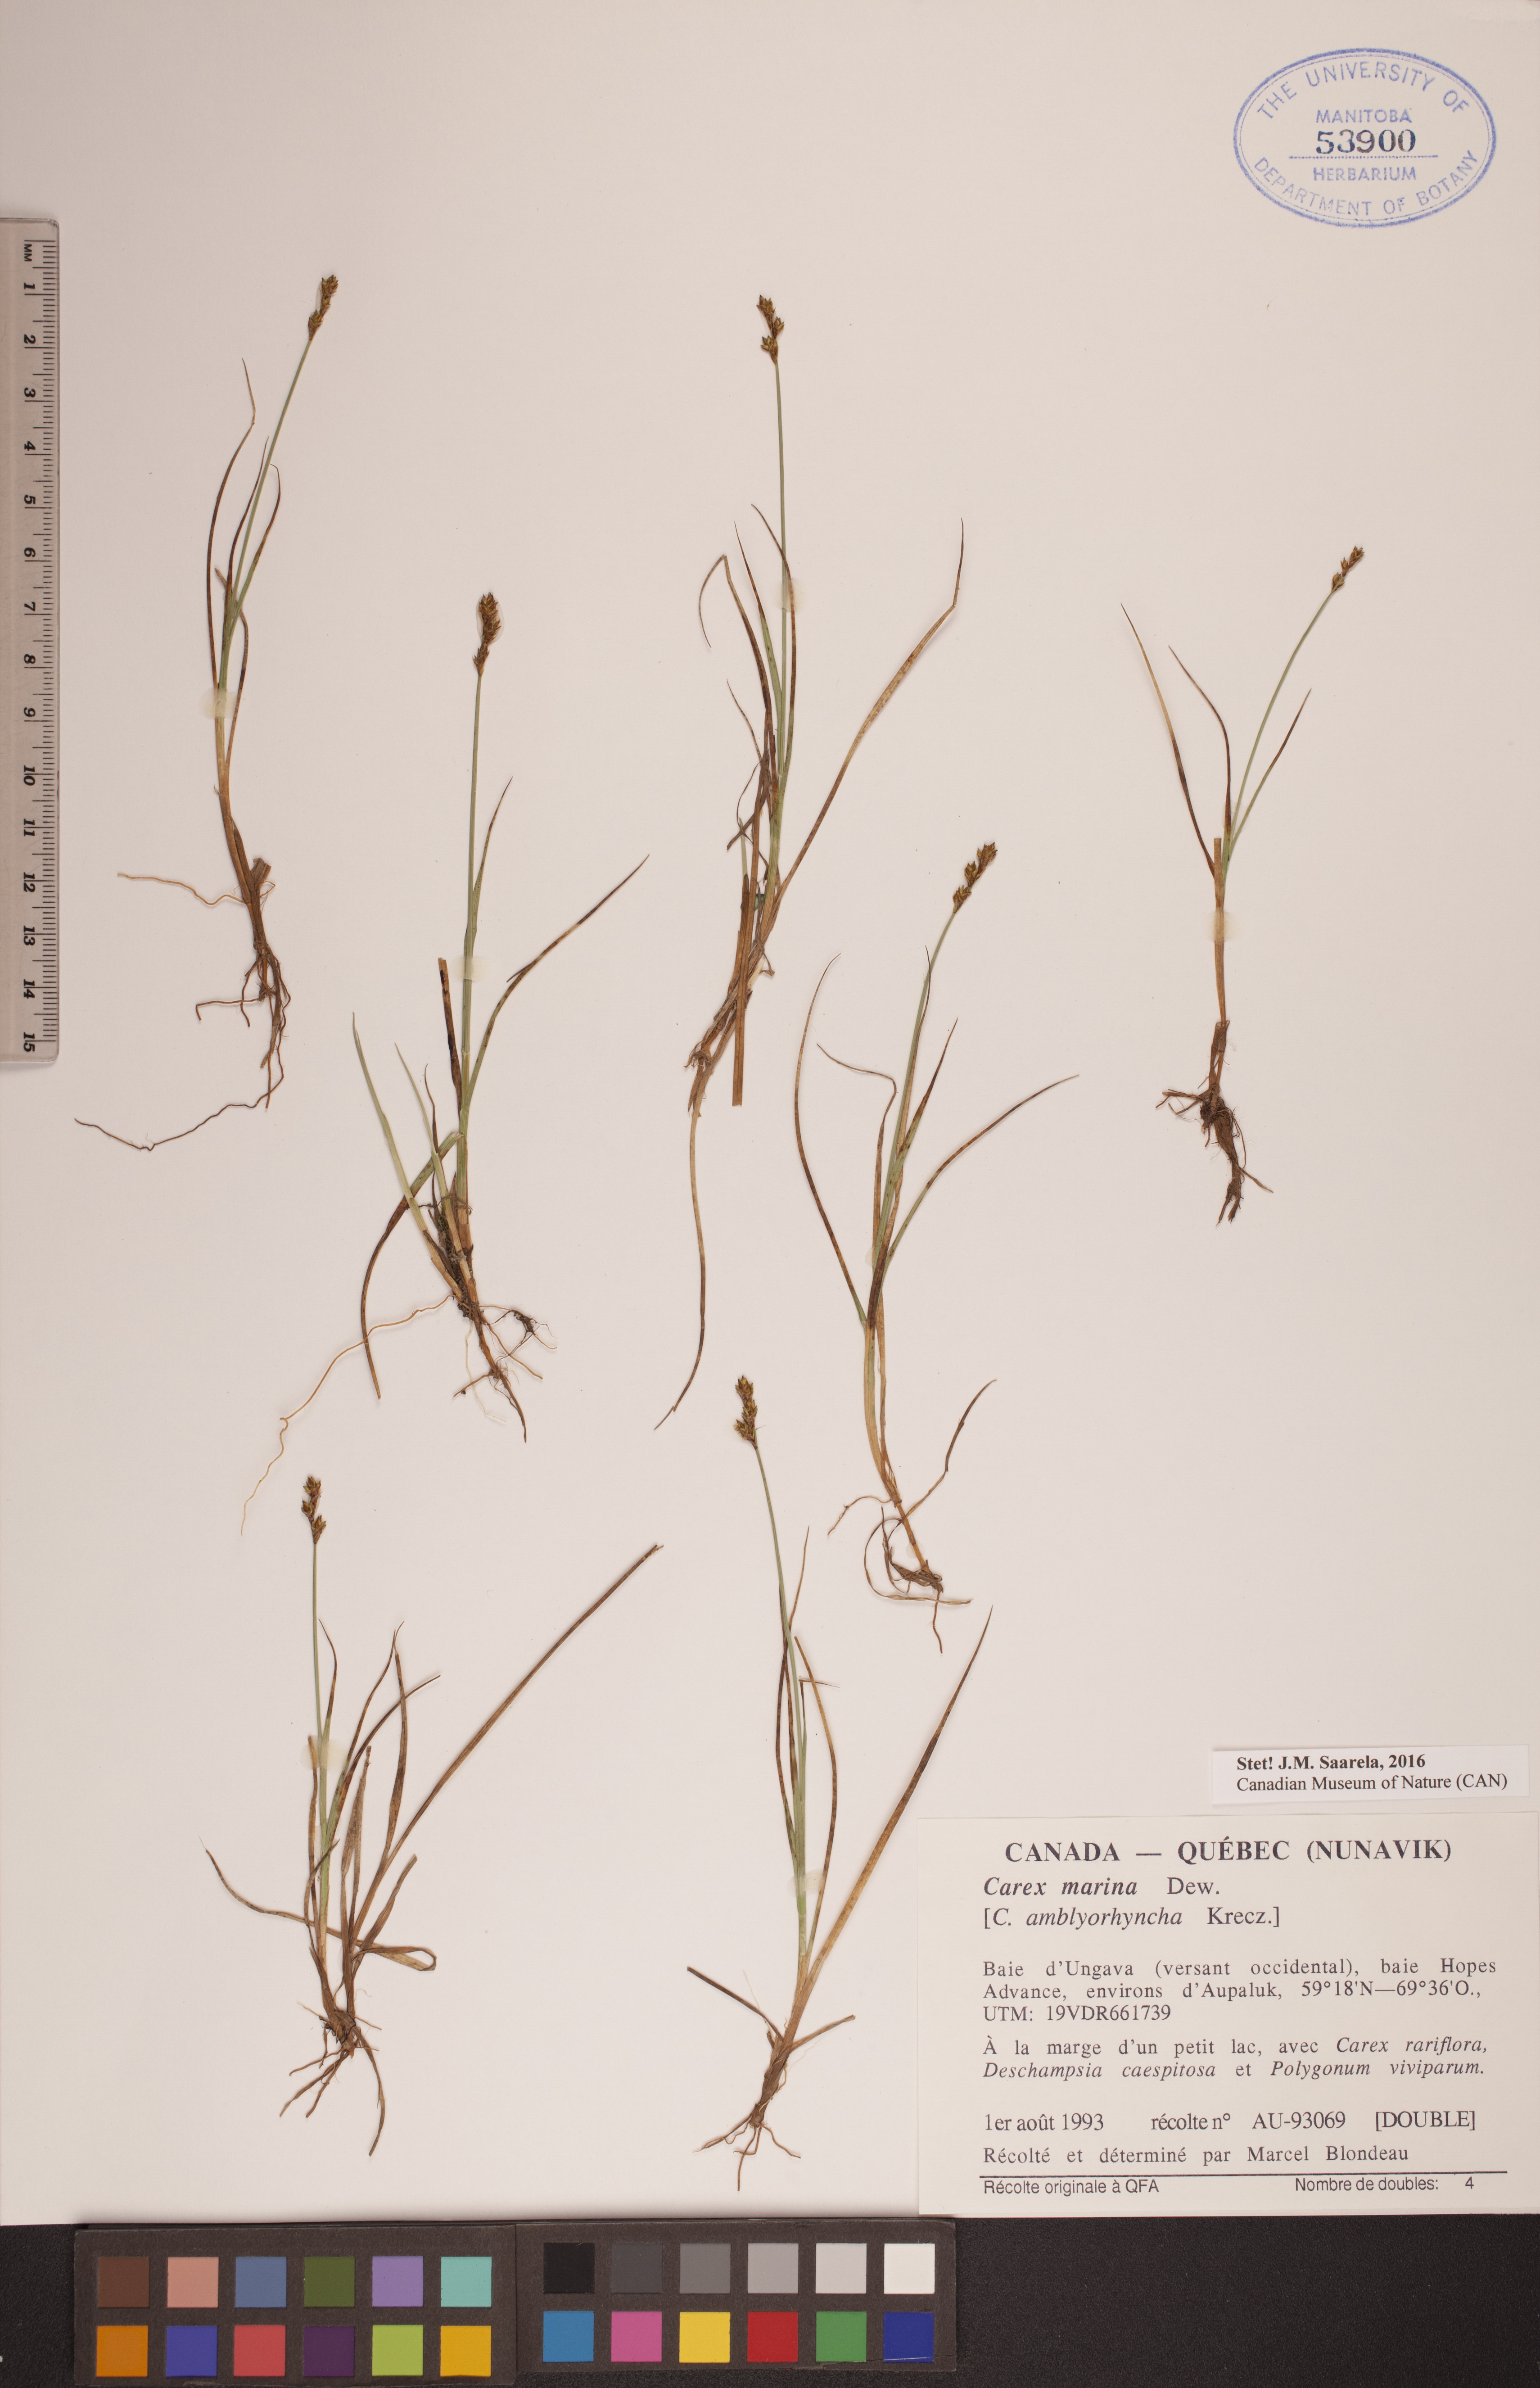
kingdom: Plantae
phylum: Tracheophyta
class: Liliopsida
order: Poales
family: Cyperaceae
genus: Carex
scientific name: Carex marina
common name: Seashore sedge
